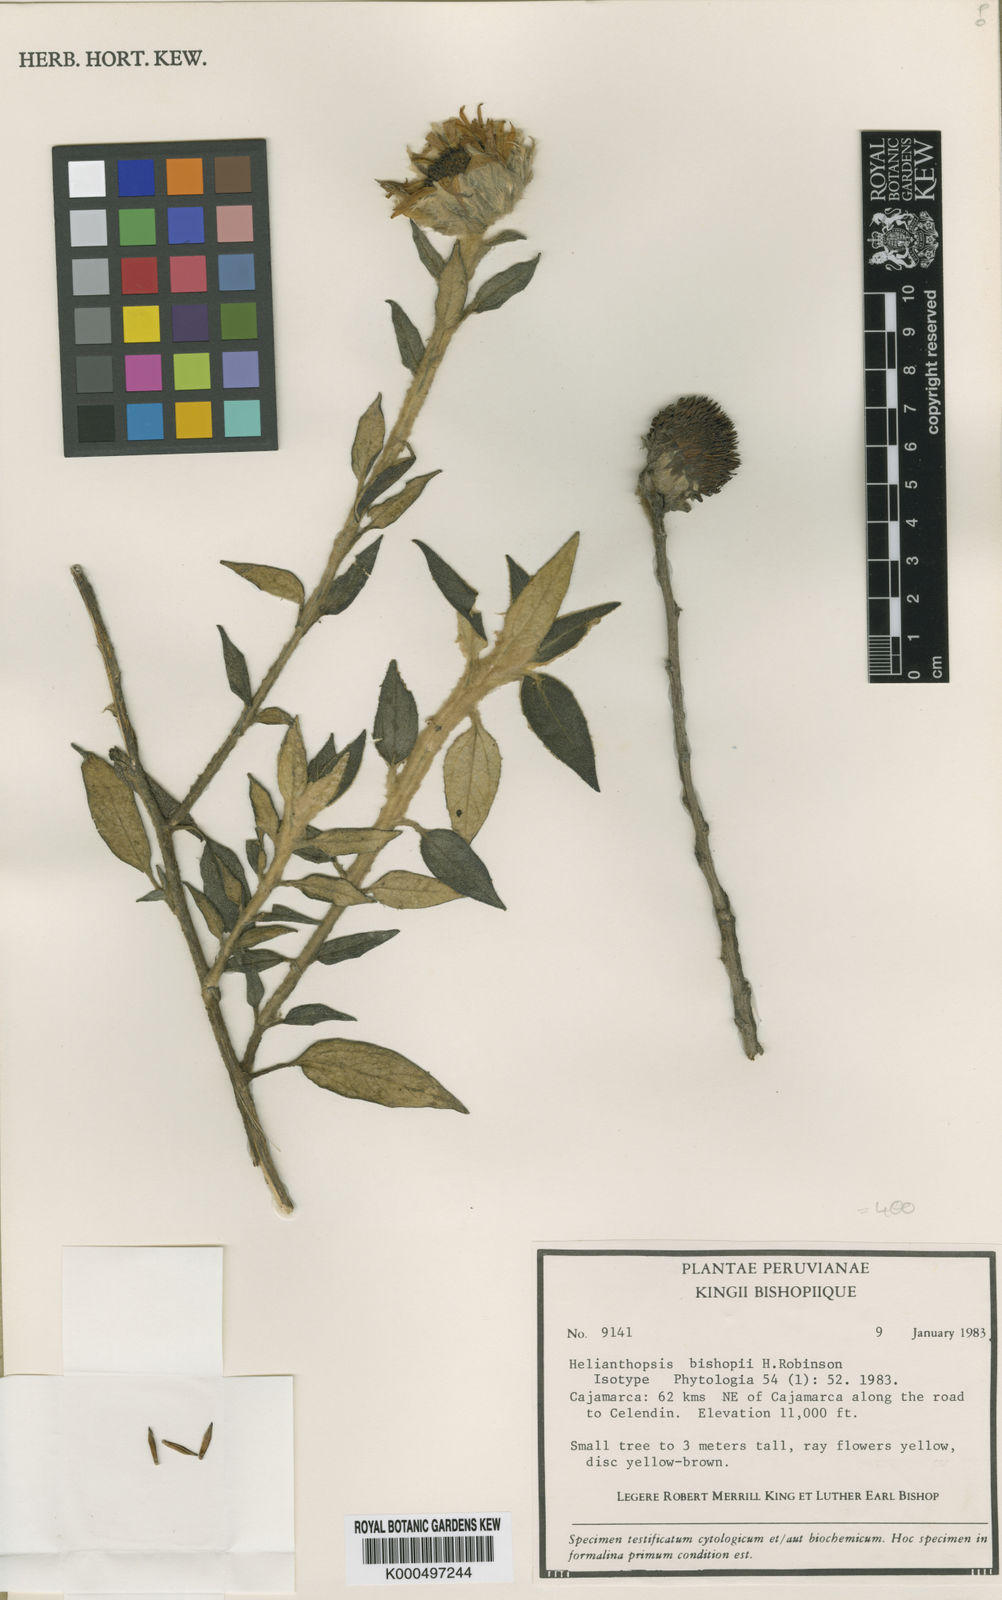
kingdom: Plantae
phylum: Tracheophyta
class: Magnoliopsida
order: Asterales
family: Asteraceae
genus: Pappobolus
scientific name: Pappobolus stuebelii
